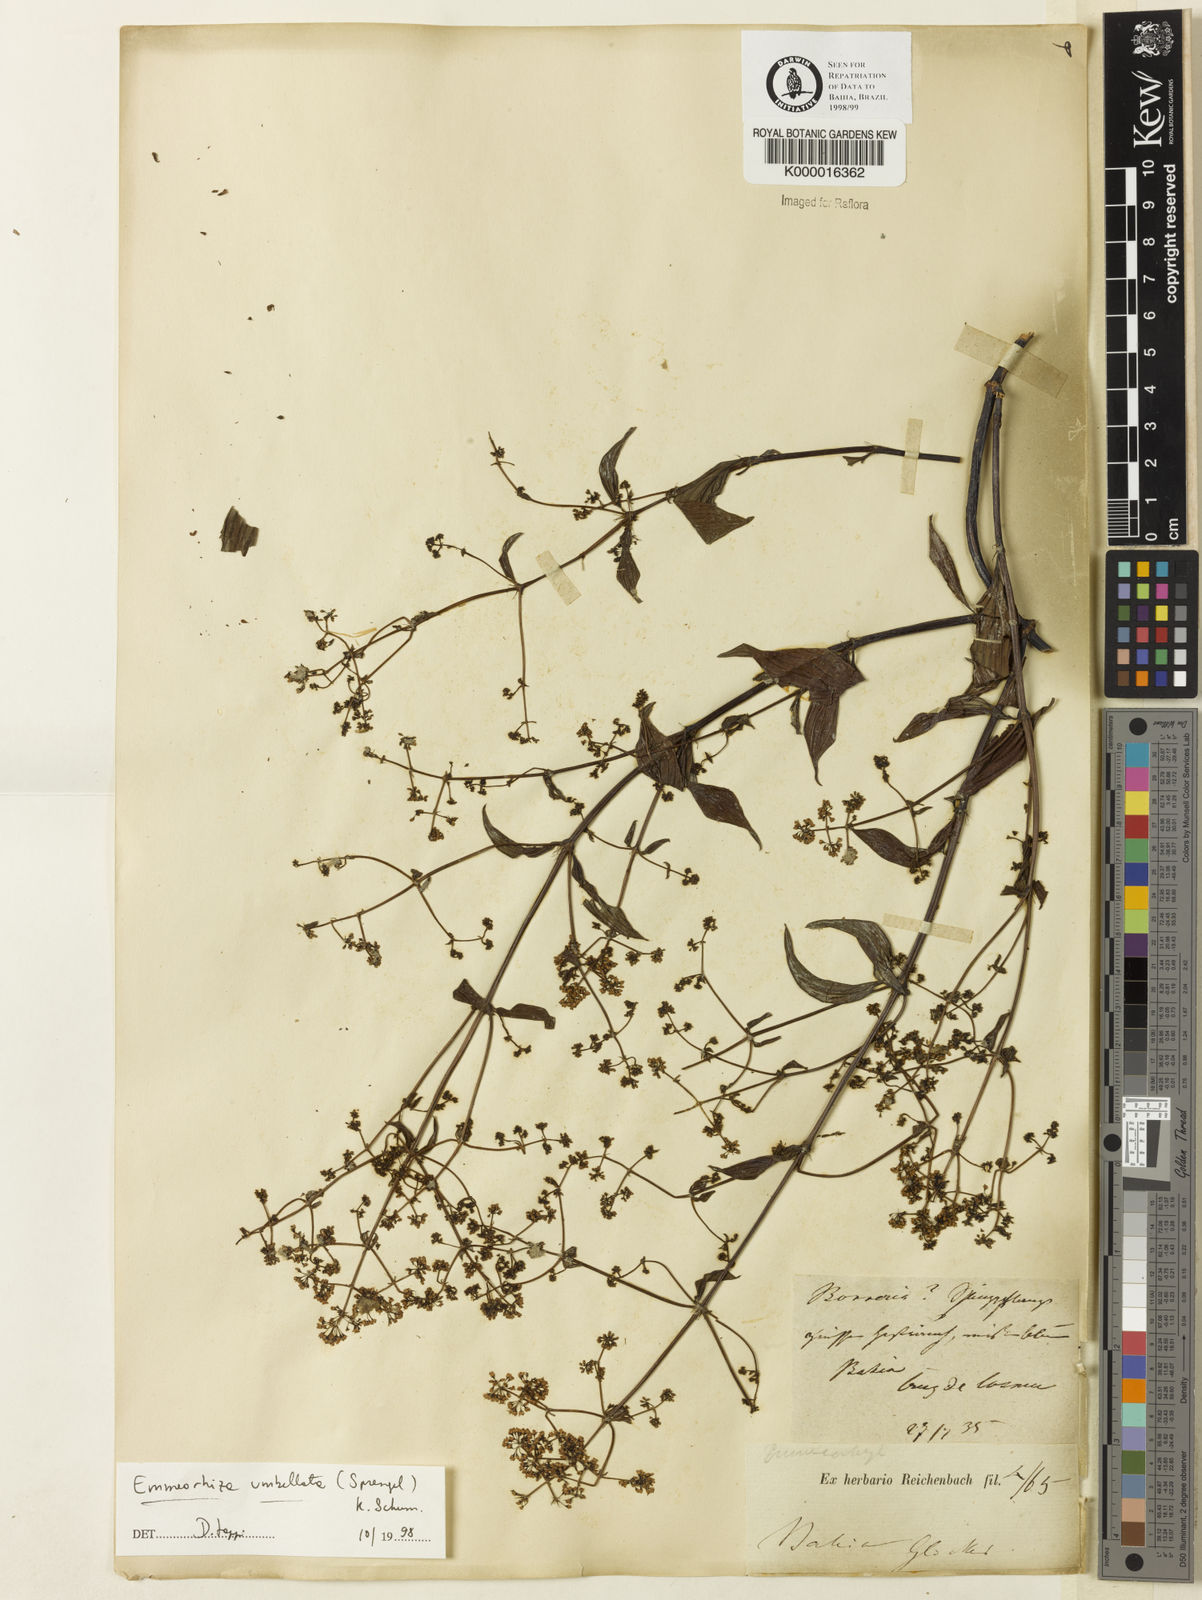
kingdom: Plantae
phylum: Tracheophyta
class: Magnoliopsida
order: Gentianales
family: Rubiaceae
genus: Emmeorhiza
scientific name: Emmeorhiza umbellata
